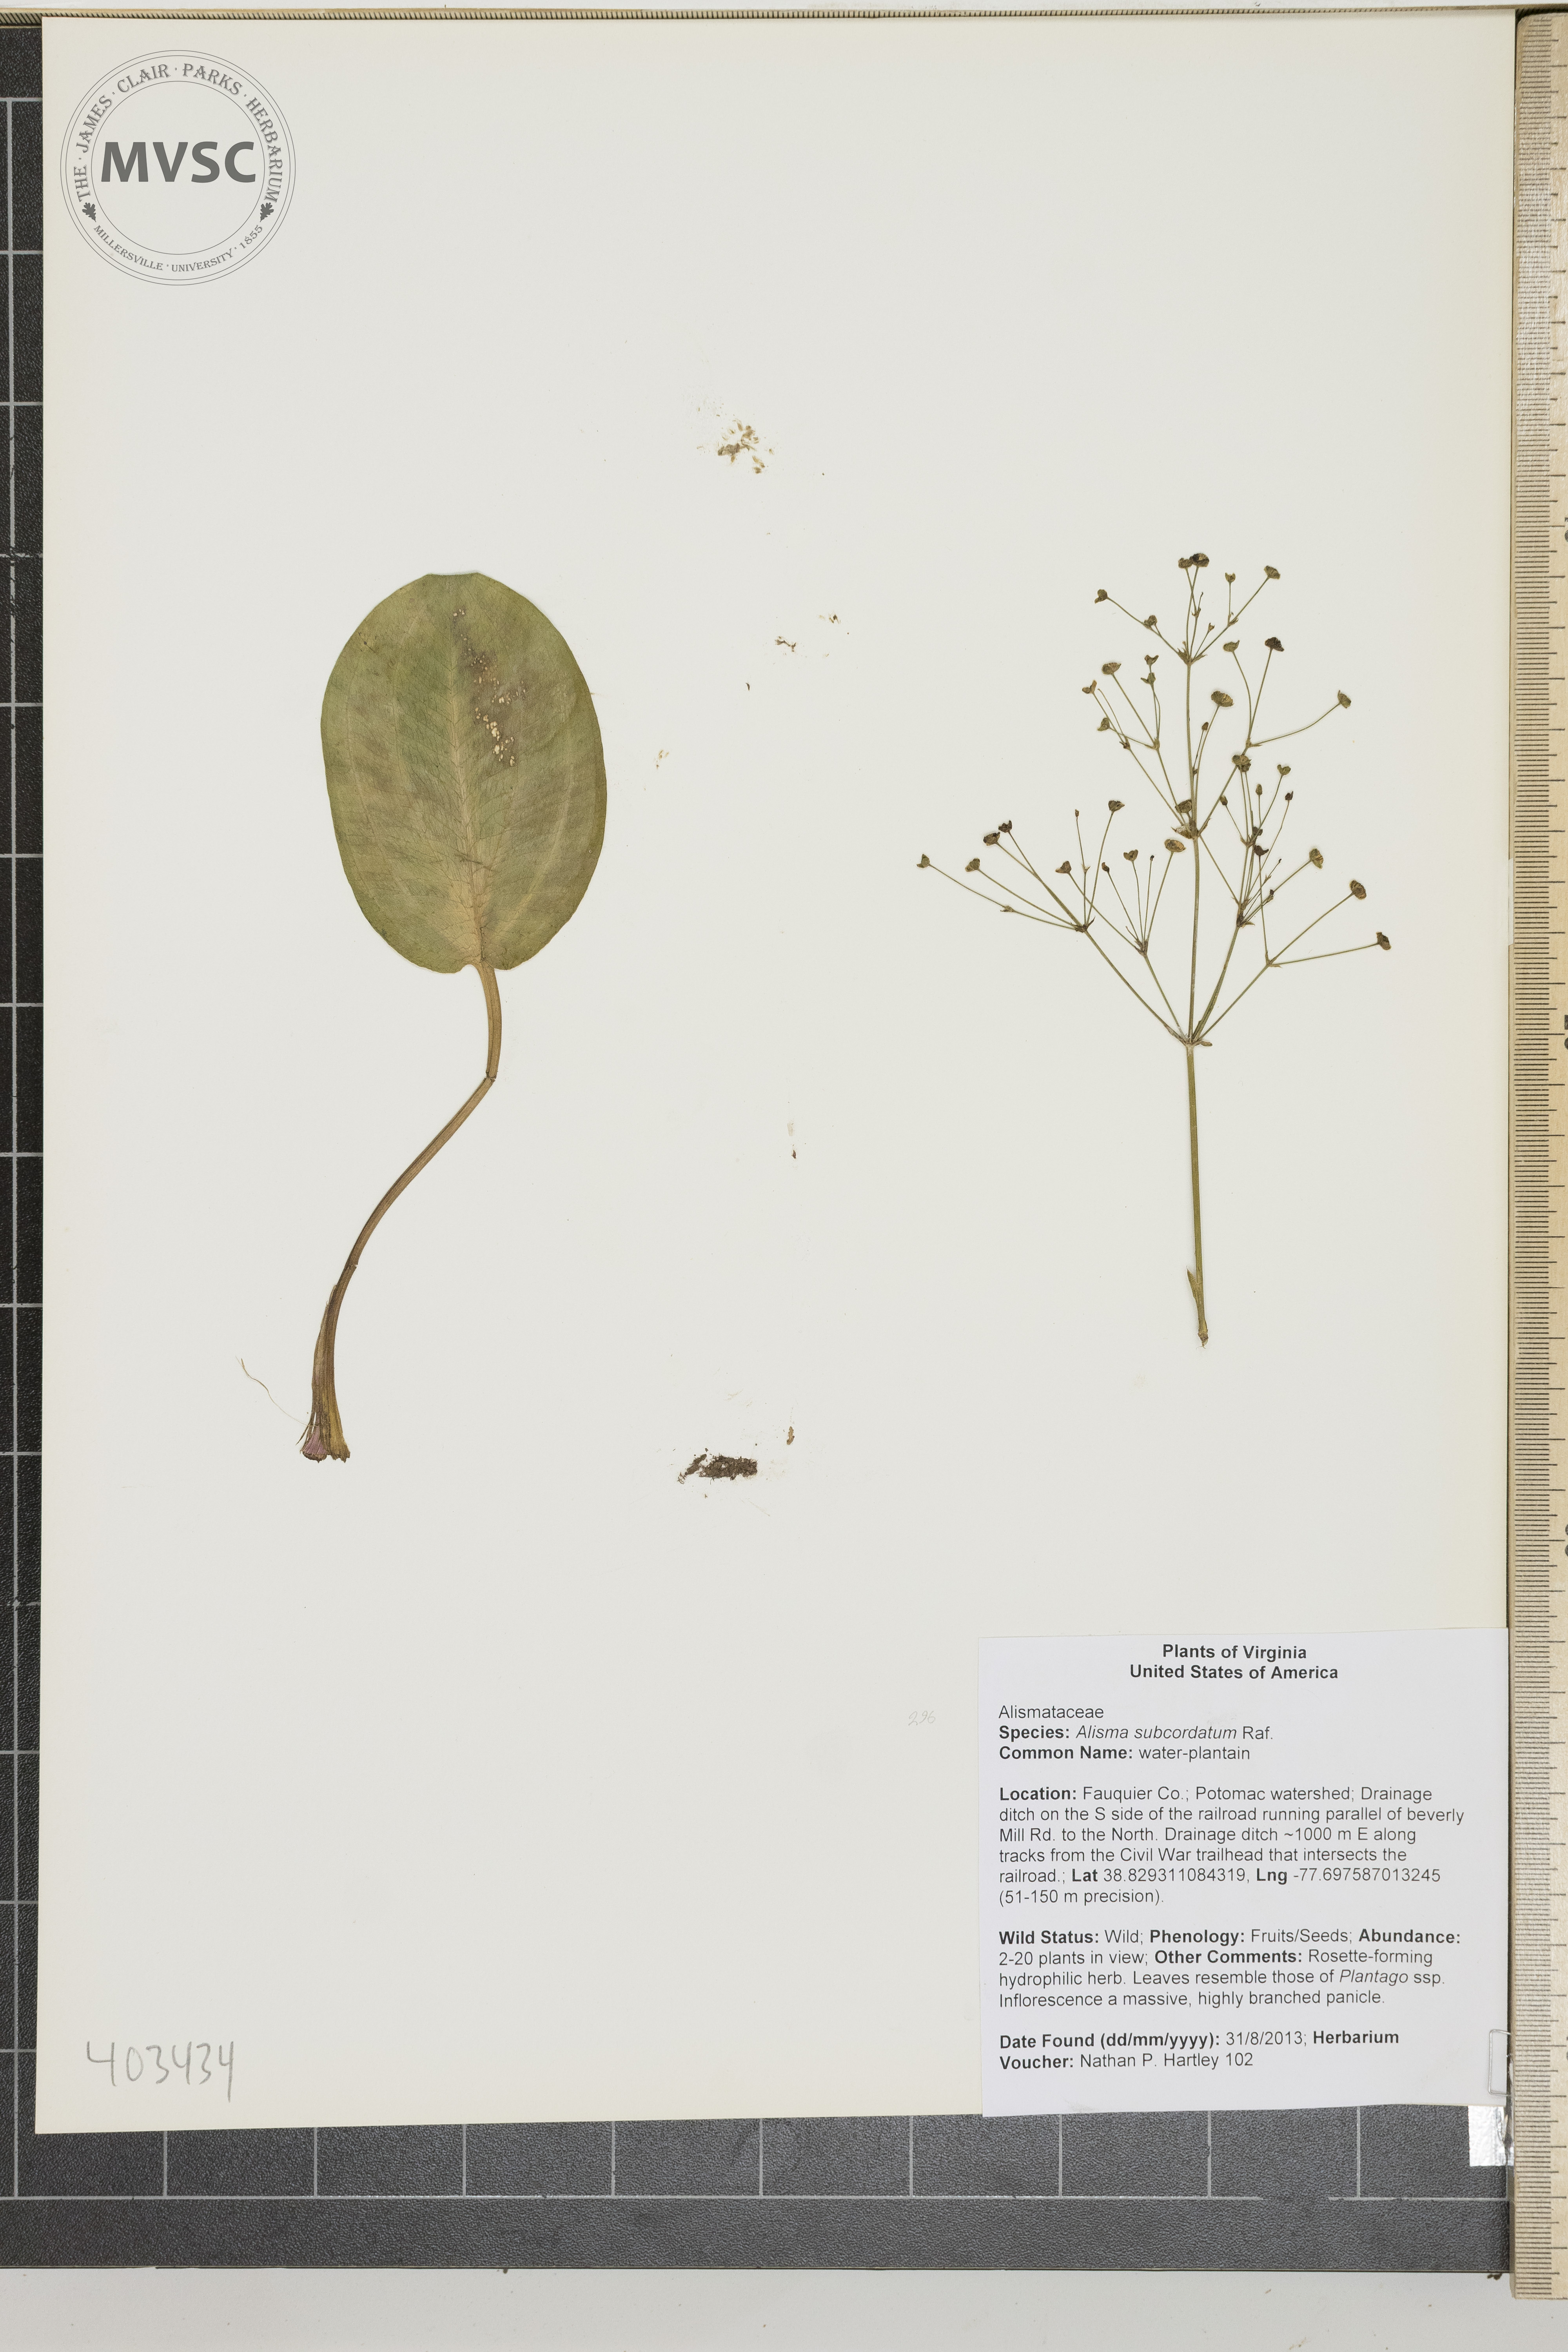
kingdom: Plantae
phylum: Tracheophyta
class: Liliopsida
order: Alismatales
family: Alismataceae
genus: Alisma
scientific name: Alisma subcordatum
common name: water-plantain
